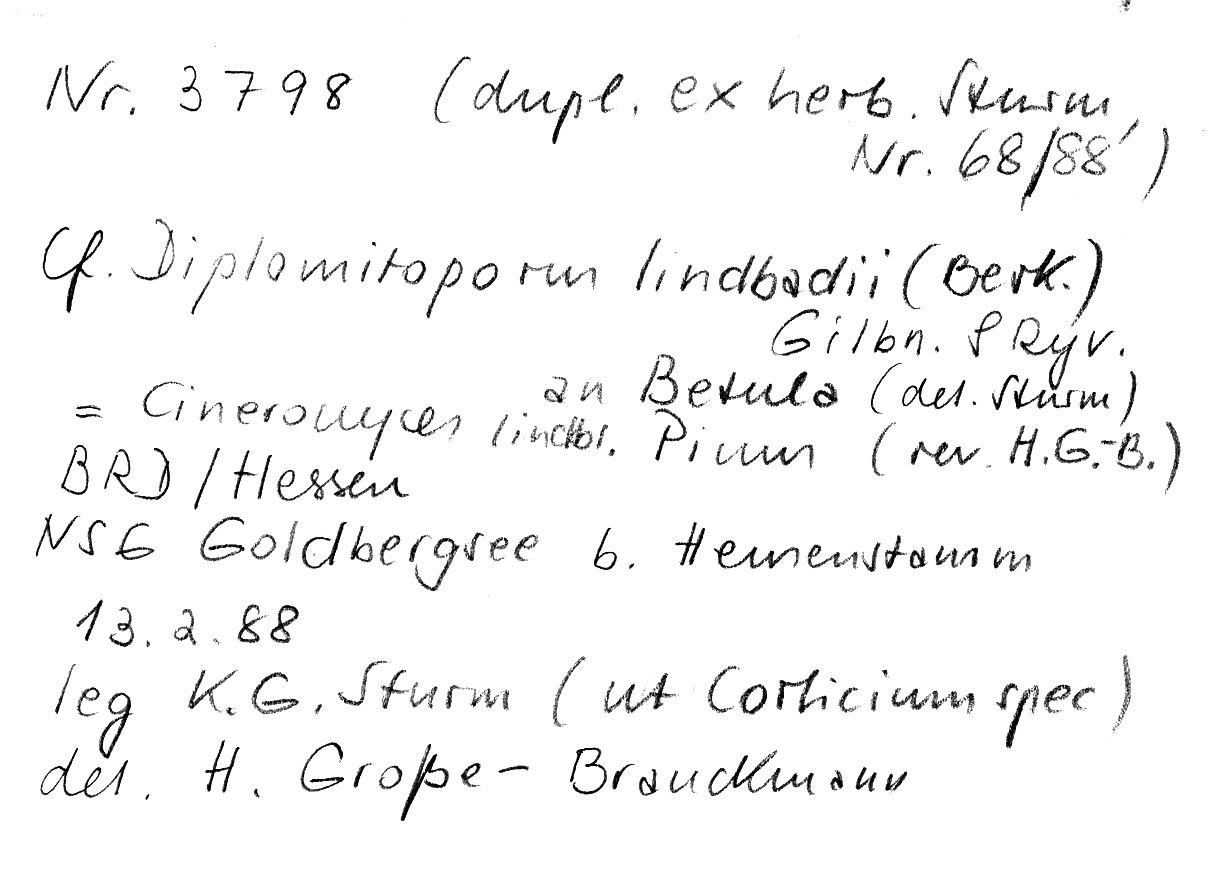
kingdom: Plantae
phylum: Tracheophyta
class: Magnoliopsida
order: Fagales
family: Betulaceae
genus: Betula
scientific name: Betula
